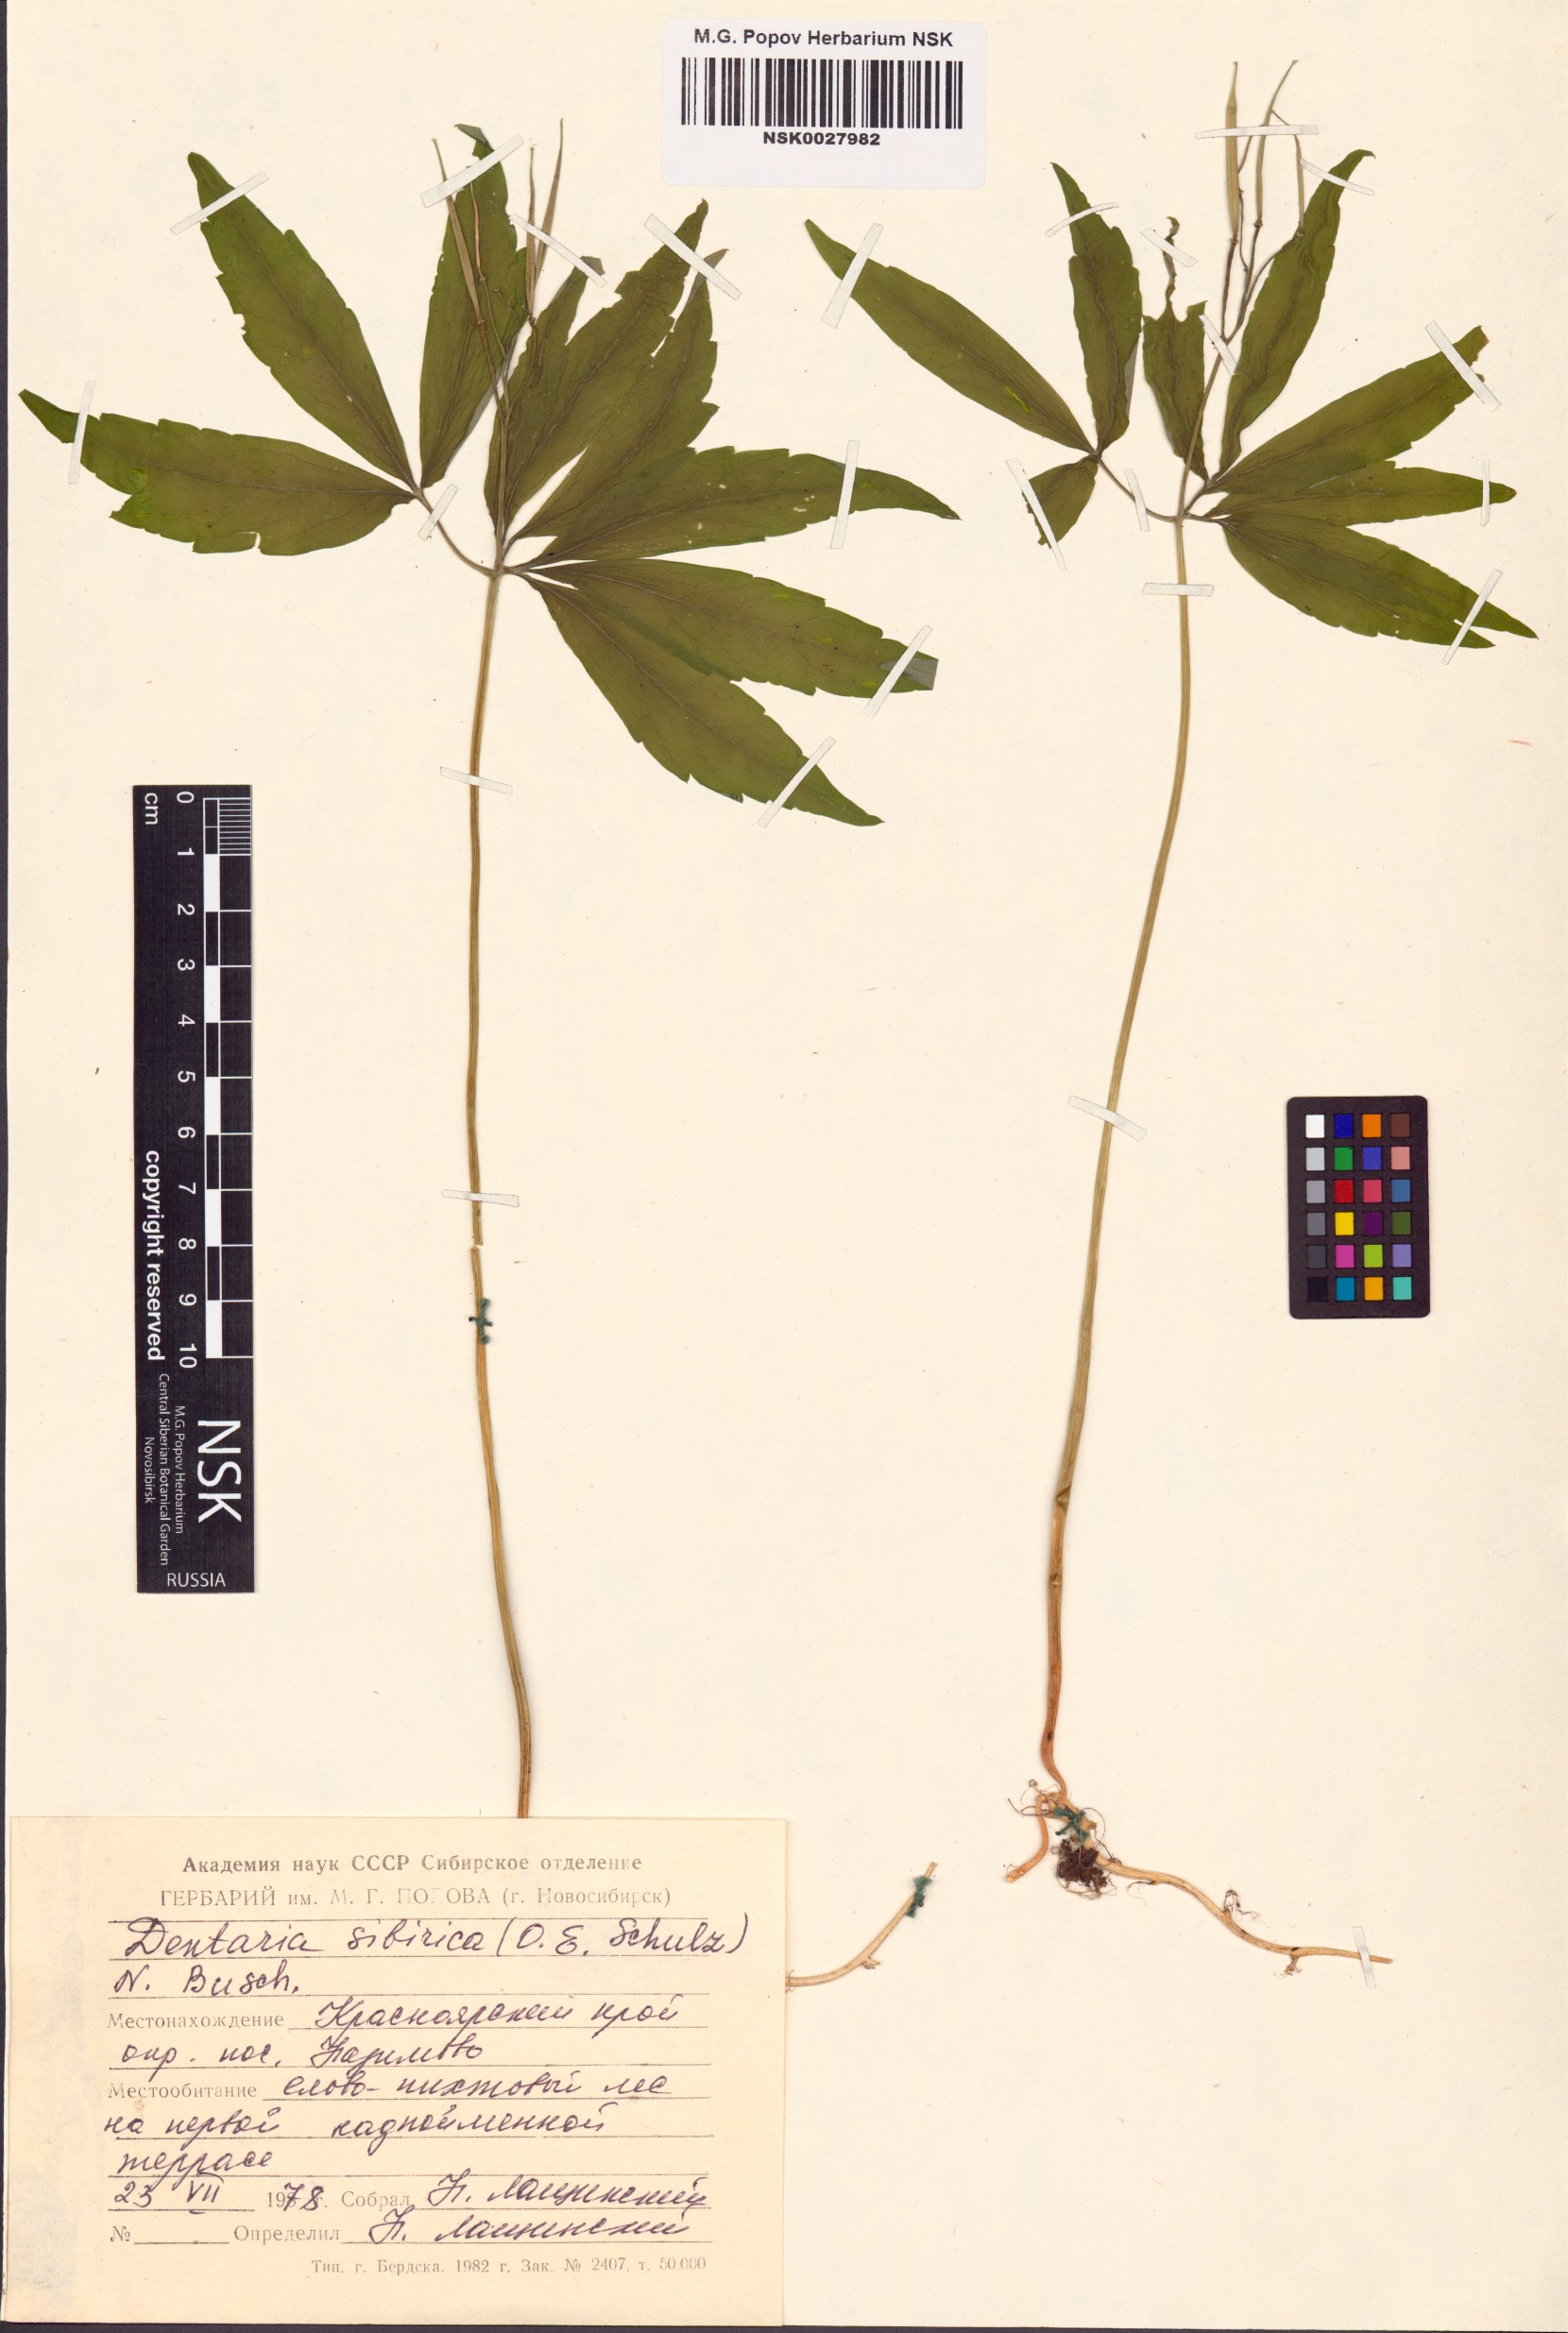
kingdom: Plantae
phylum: Tracheophyta
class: Magnoliopsida
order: Brassicales
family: Brassicaceae
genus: Cardamine
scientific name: Cardamine glanduligera
